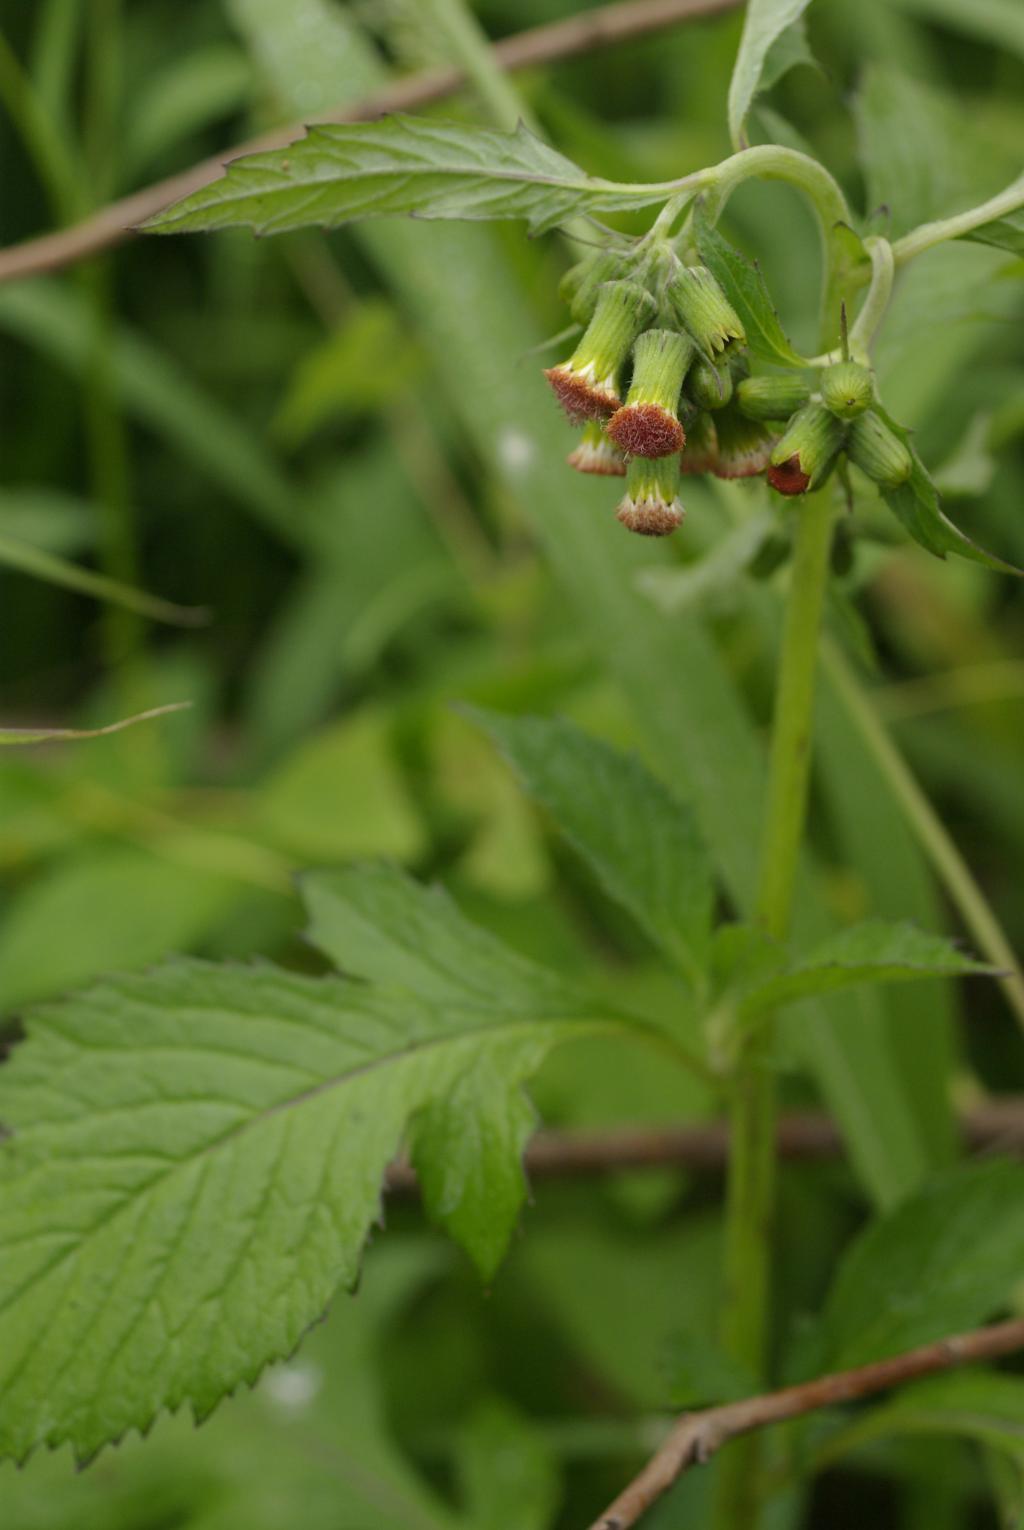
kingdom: Plantae
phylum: Tracheophyta
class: Magnoliopsida
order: Asterales
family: Asteraceae
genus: Crassocephalum
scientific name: Crassocephalum crepidioides
